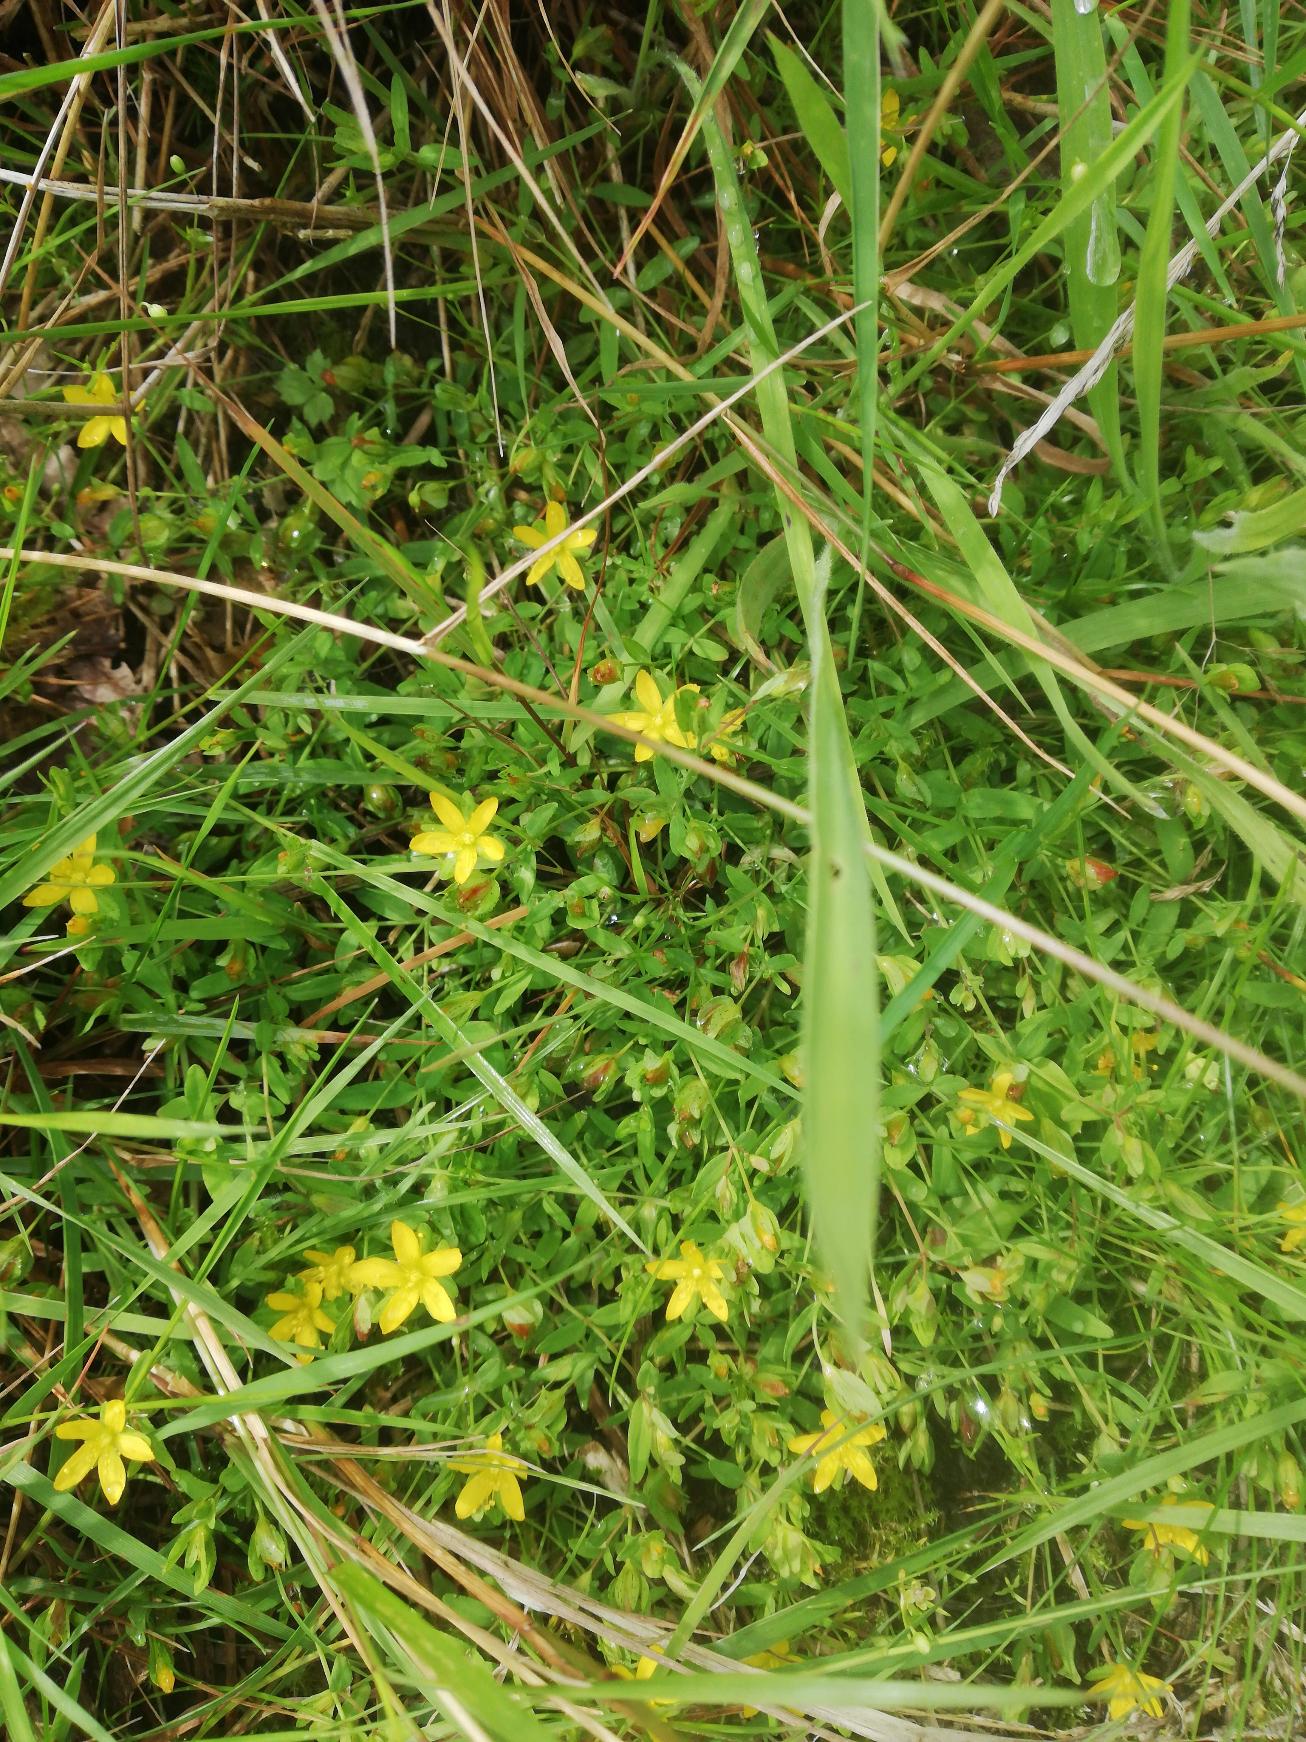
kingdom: Plantae
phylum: Tracheophyta
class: Magnoliopsida
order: Malpighiales
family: Hypericaceae
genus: Hypericum
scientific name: Hypericum humifusum
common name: Dværg-perikon
